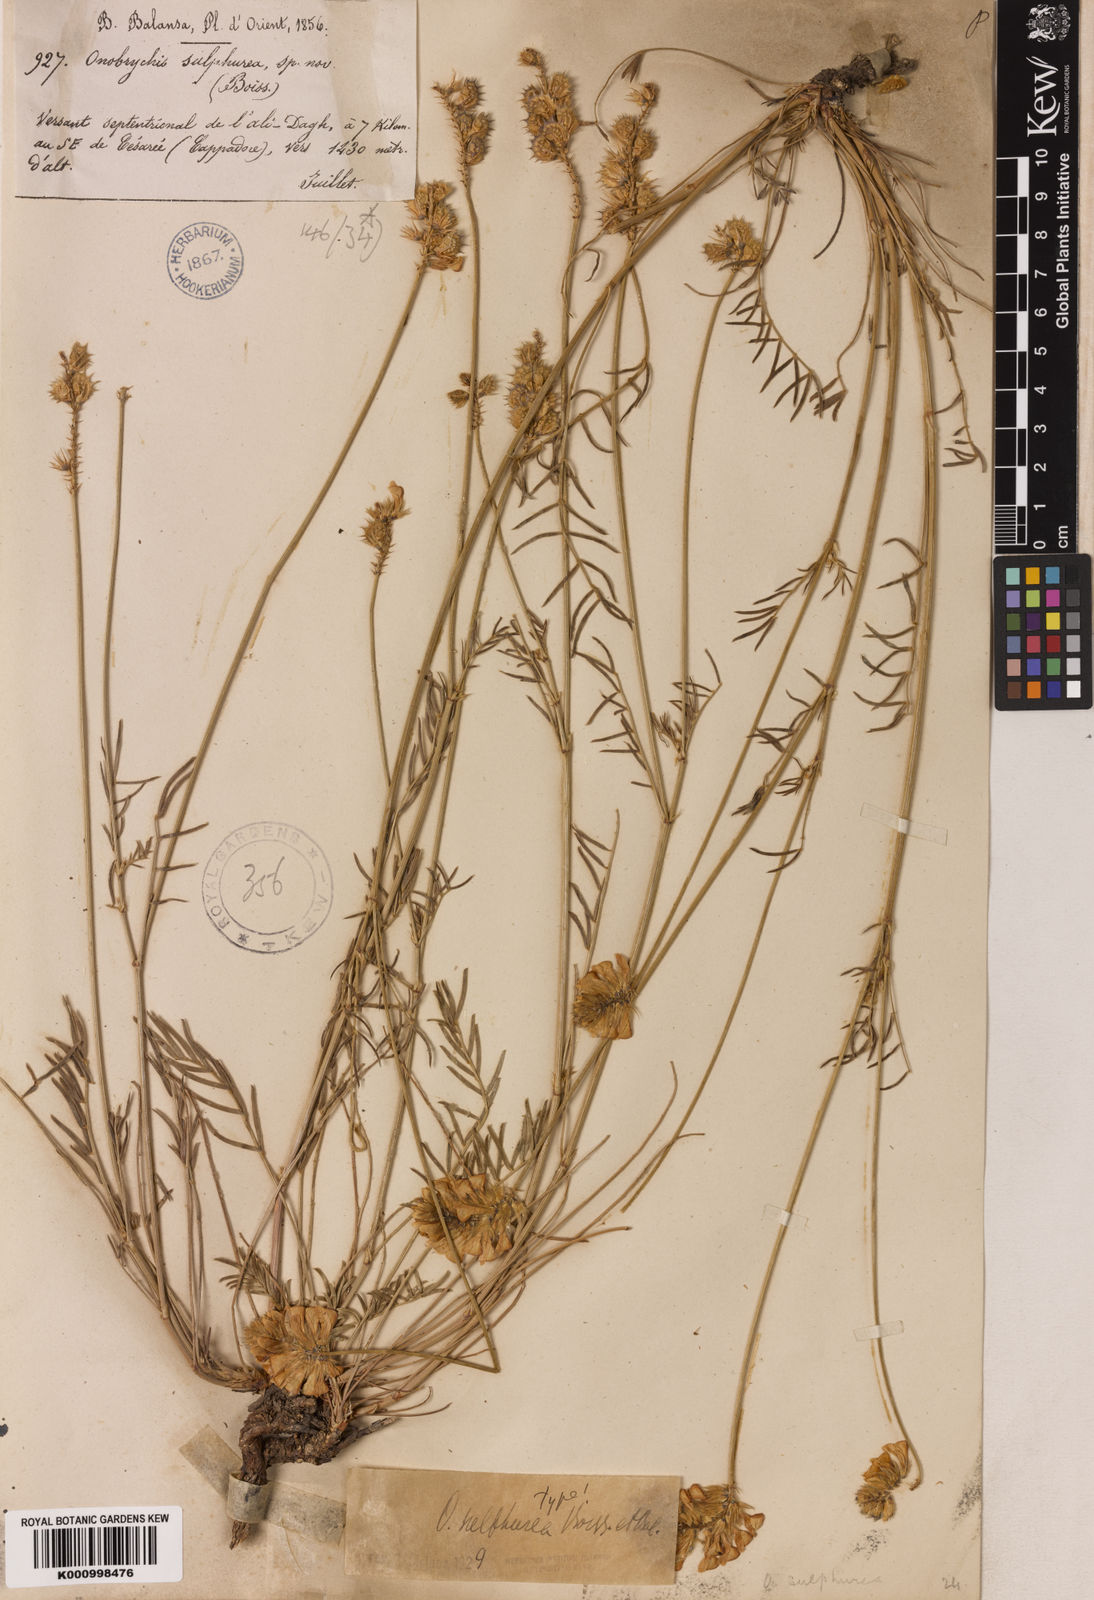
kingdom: Plantae
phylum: Tracheophyta
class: Magnoliopsida
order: Fabales
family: Fabaceae
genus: Onobrychis
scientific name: Onobrychis sulphurea
